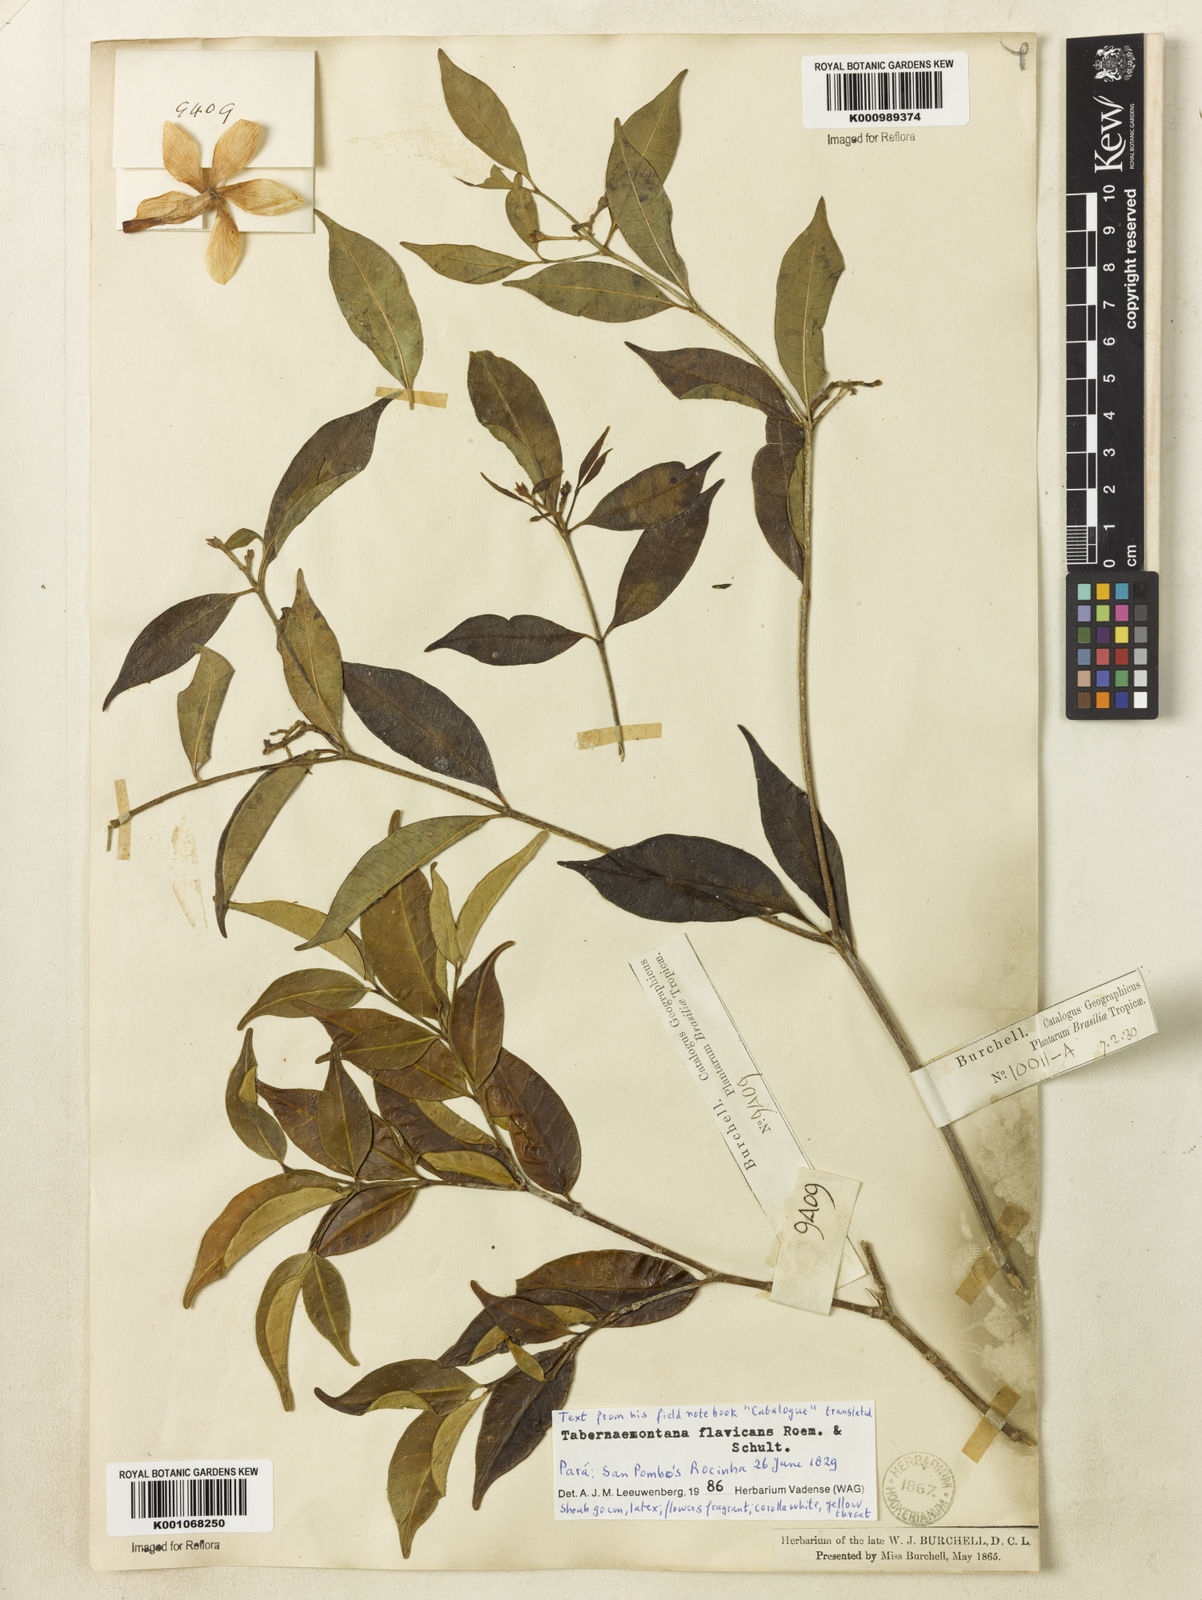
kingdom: Plantae
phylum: Tracheophyta
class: Magnoliopsida
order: Gentianales
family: Apocynaceae
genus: Tabernaemontana
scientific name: Tabernaemontana flavicans
